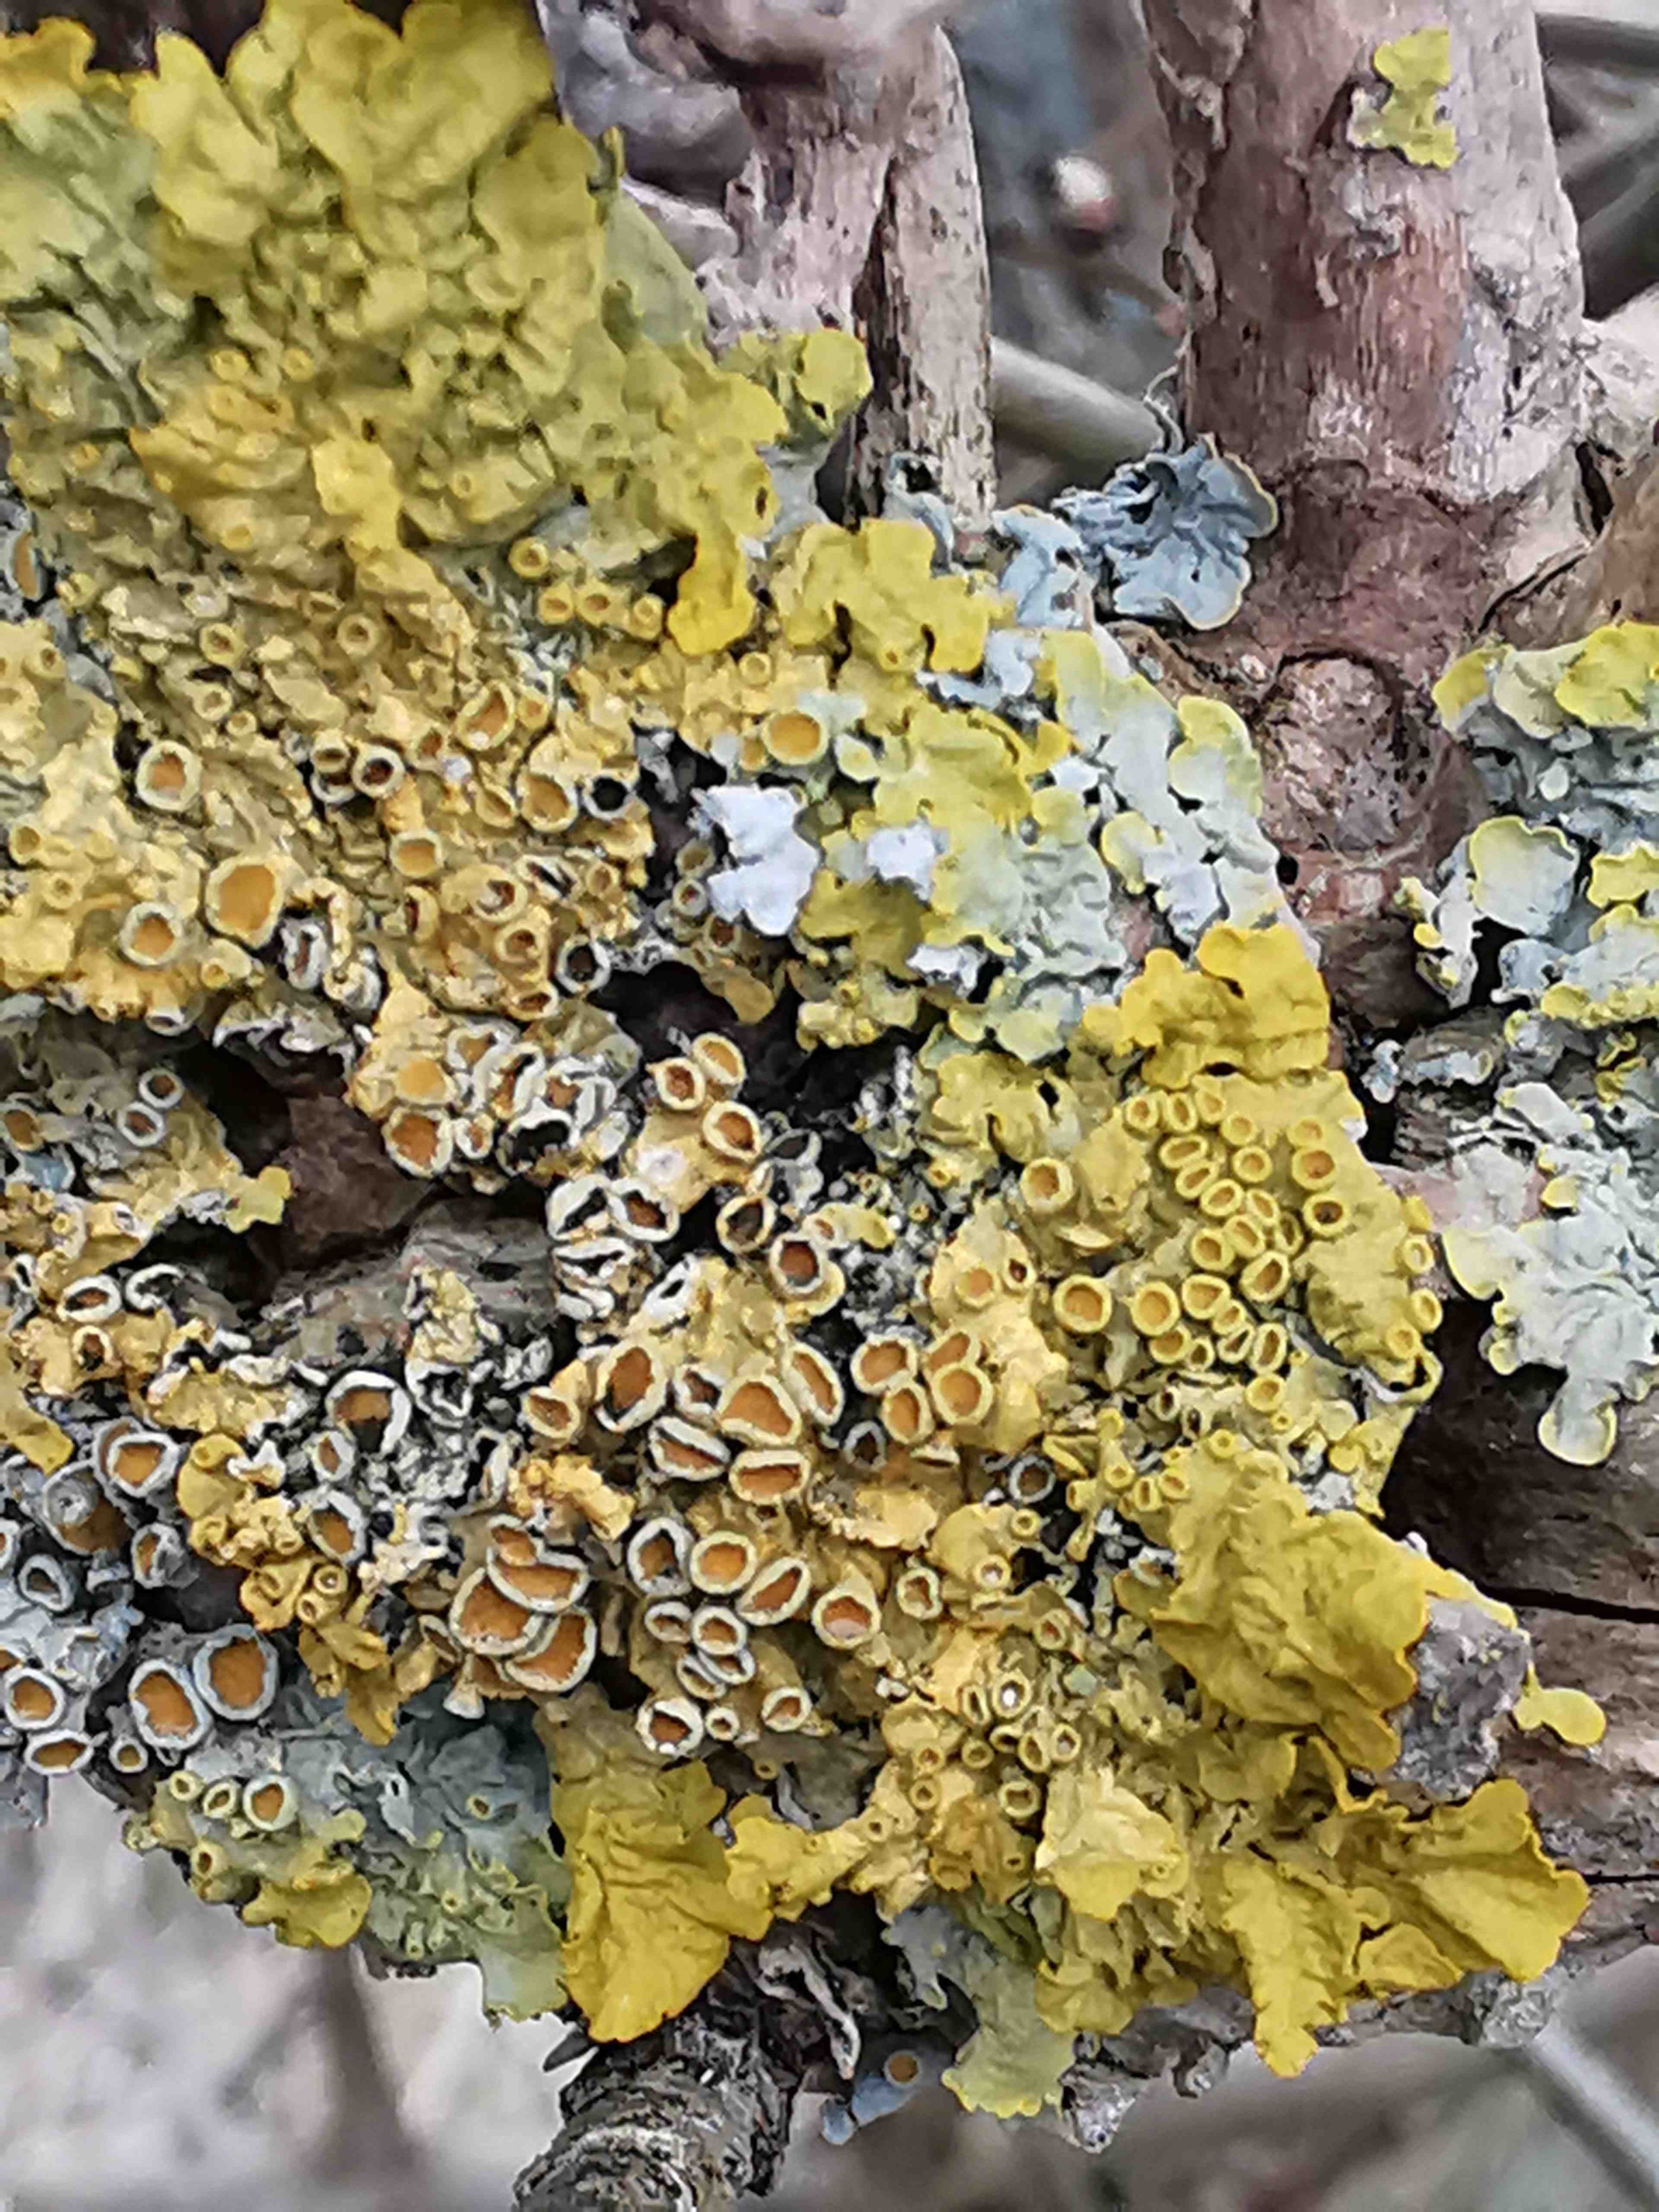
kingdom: Fungi
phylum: Ascomycota
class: Lecanoromycetes
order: Teloschistales
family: Teloschistaceae
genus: Xanthoria
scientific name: Xanthoria parietina
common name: almindelig væggelav
